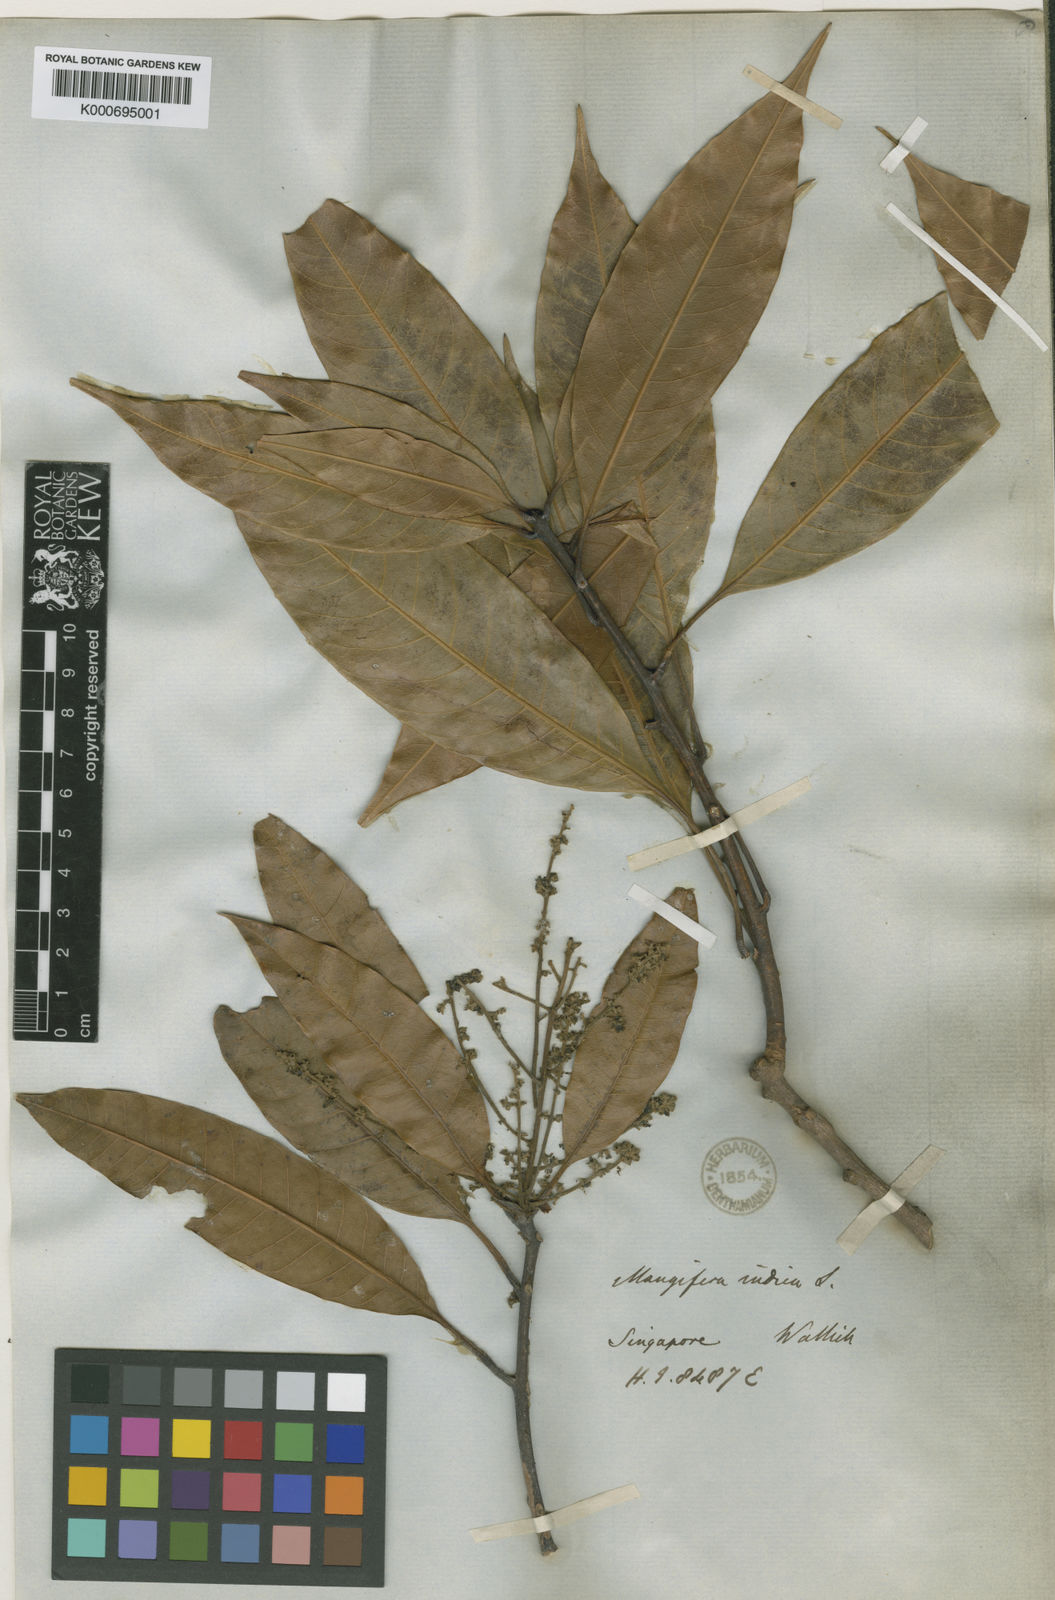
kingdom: Plantae
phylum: Tracheophyta
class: Magnoliopsida
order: Sapindales
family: Anacardiaceae
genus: Mangifera
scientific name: Mangifera indica
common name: Mango
